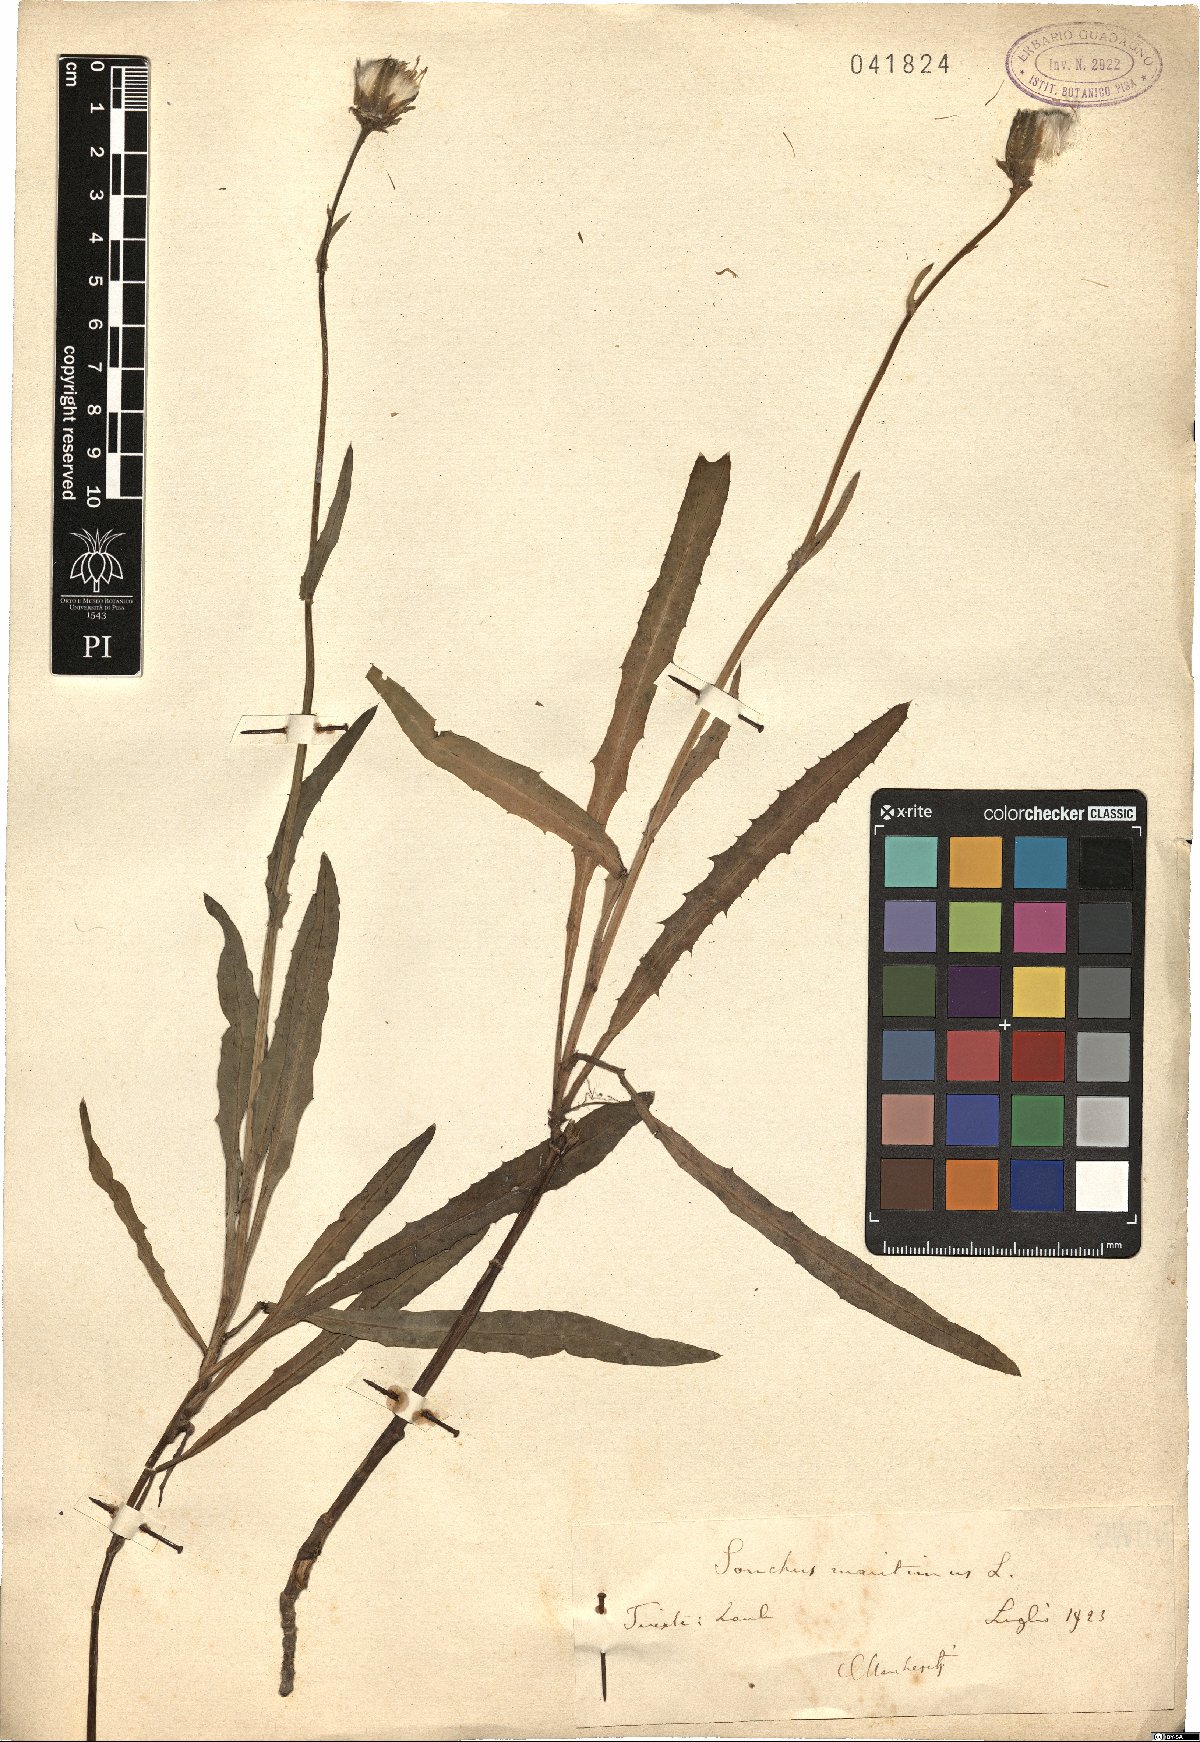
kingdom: Plantae
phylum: Tracheophyta
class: Magnoliopsida
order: Asterales
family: Asteraceae
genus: Sonchus
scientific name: Sonchus maritimus
